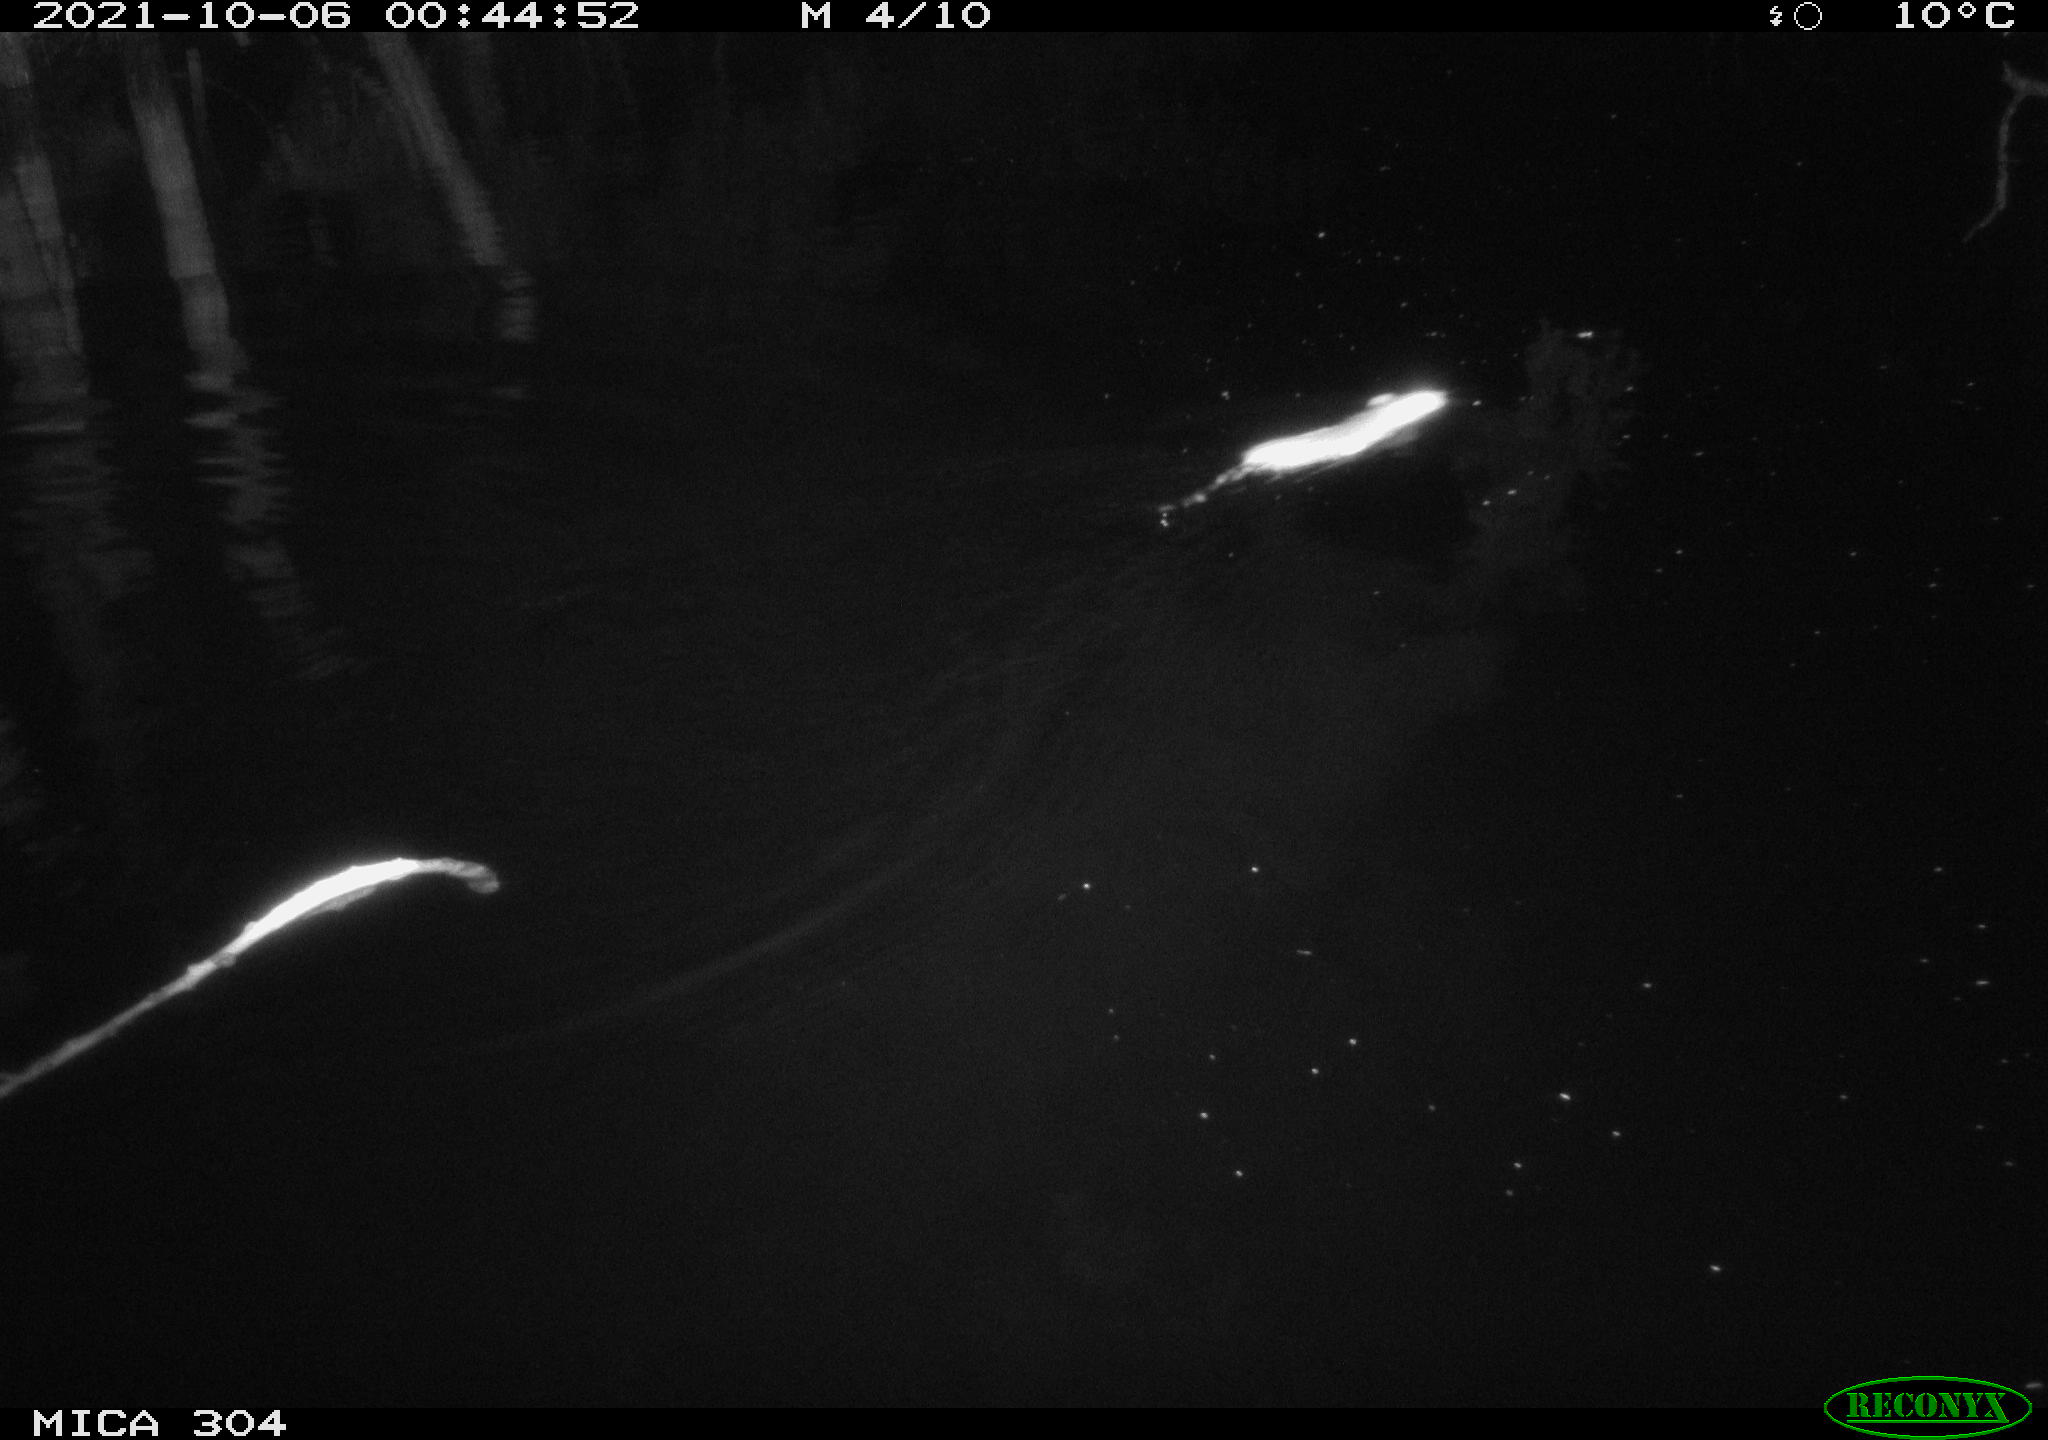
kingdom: Animalia
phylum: Chordata
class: Mammalia
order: Rodentia
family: Muridae
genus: Rattus
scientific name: Rattus norvegicus
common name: Brown rat
